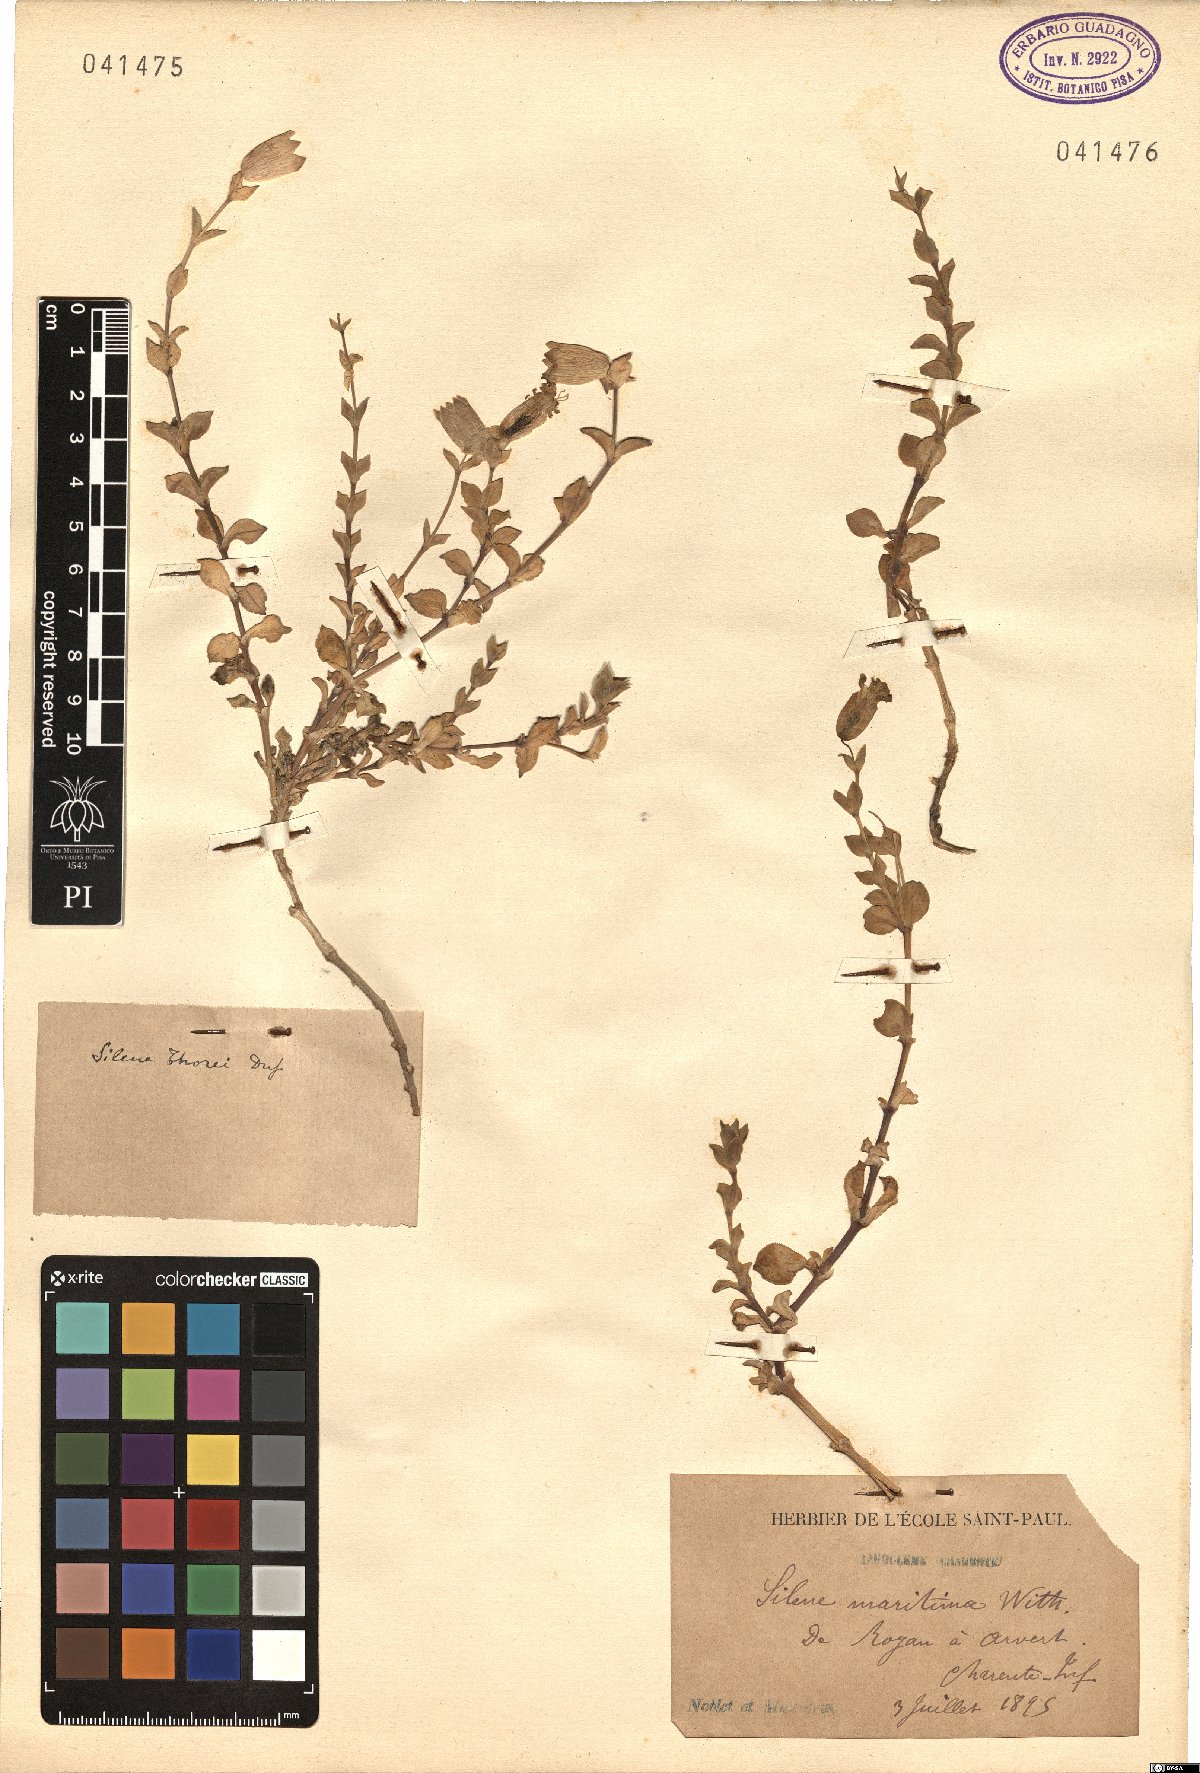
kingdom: Plantae
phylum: Tracheophyta
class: Magnoliopsida
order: Caryophyllales
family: Caryophyllaceae
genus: Silene
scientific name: Silene uniflora
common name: Sea campion
